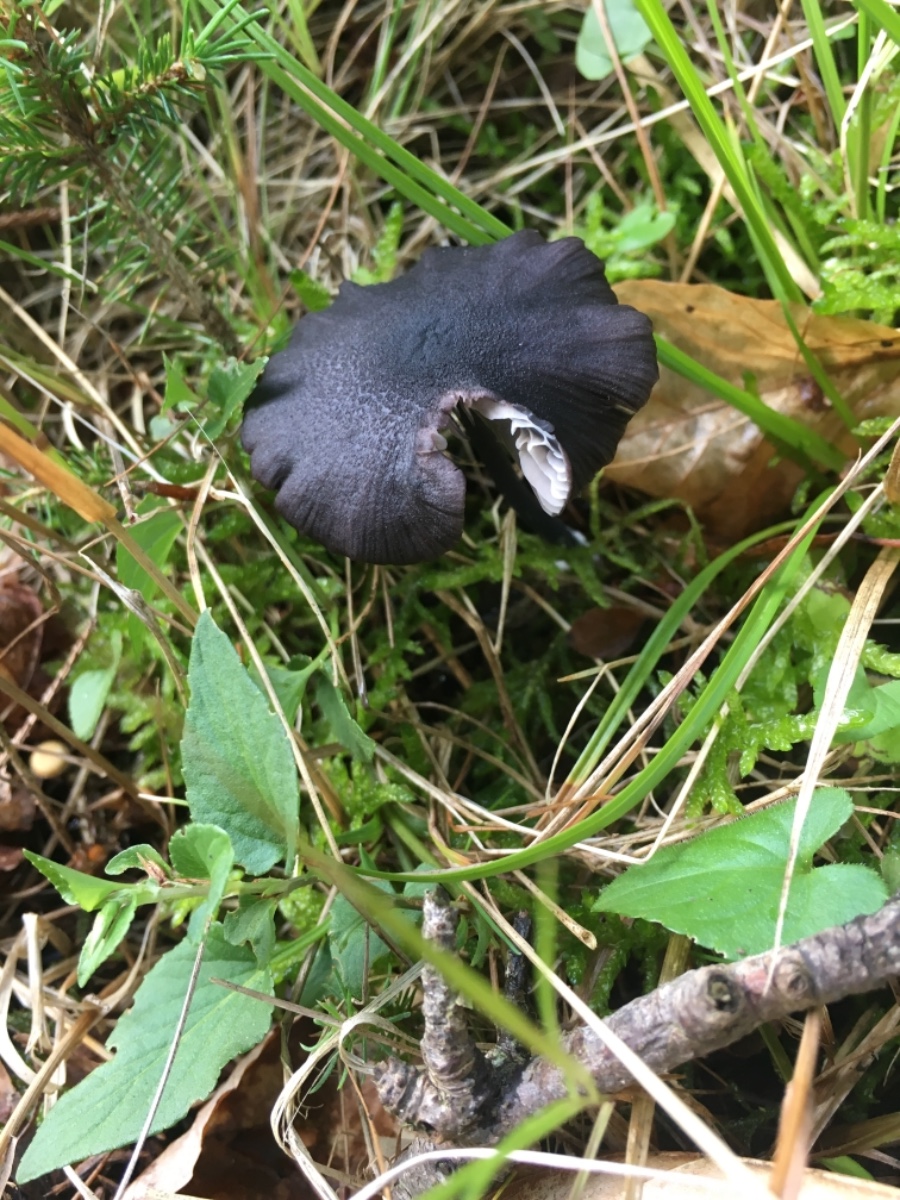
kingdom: Fungi
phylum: Basidiomycota
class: Agaricomycetes
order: Agaricales
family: Entolomataceae
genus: Entoloma
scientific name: Entoloma
